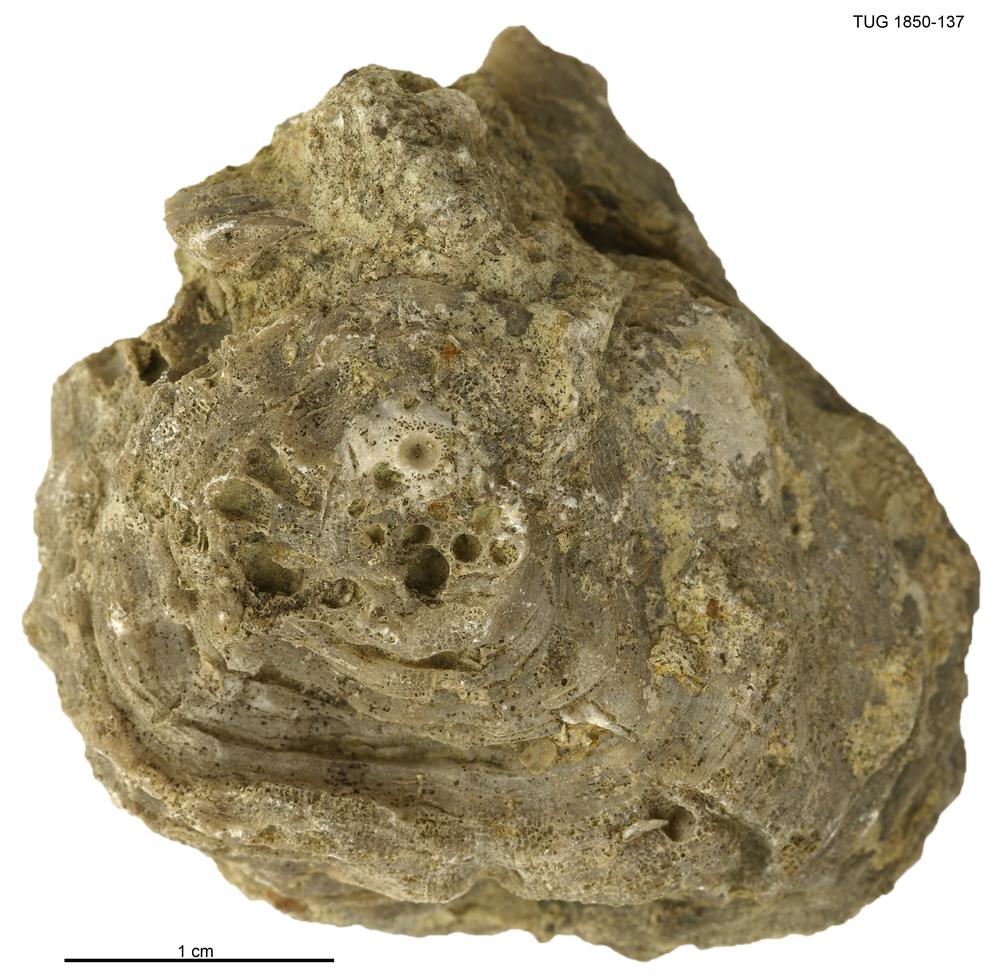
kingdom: Animalia
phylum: Cnidaria
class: Anthozoa
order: Heliolitina
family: Heliolitidae
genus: Heliolites
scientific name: Heliolites
